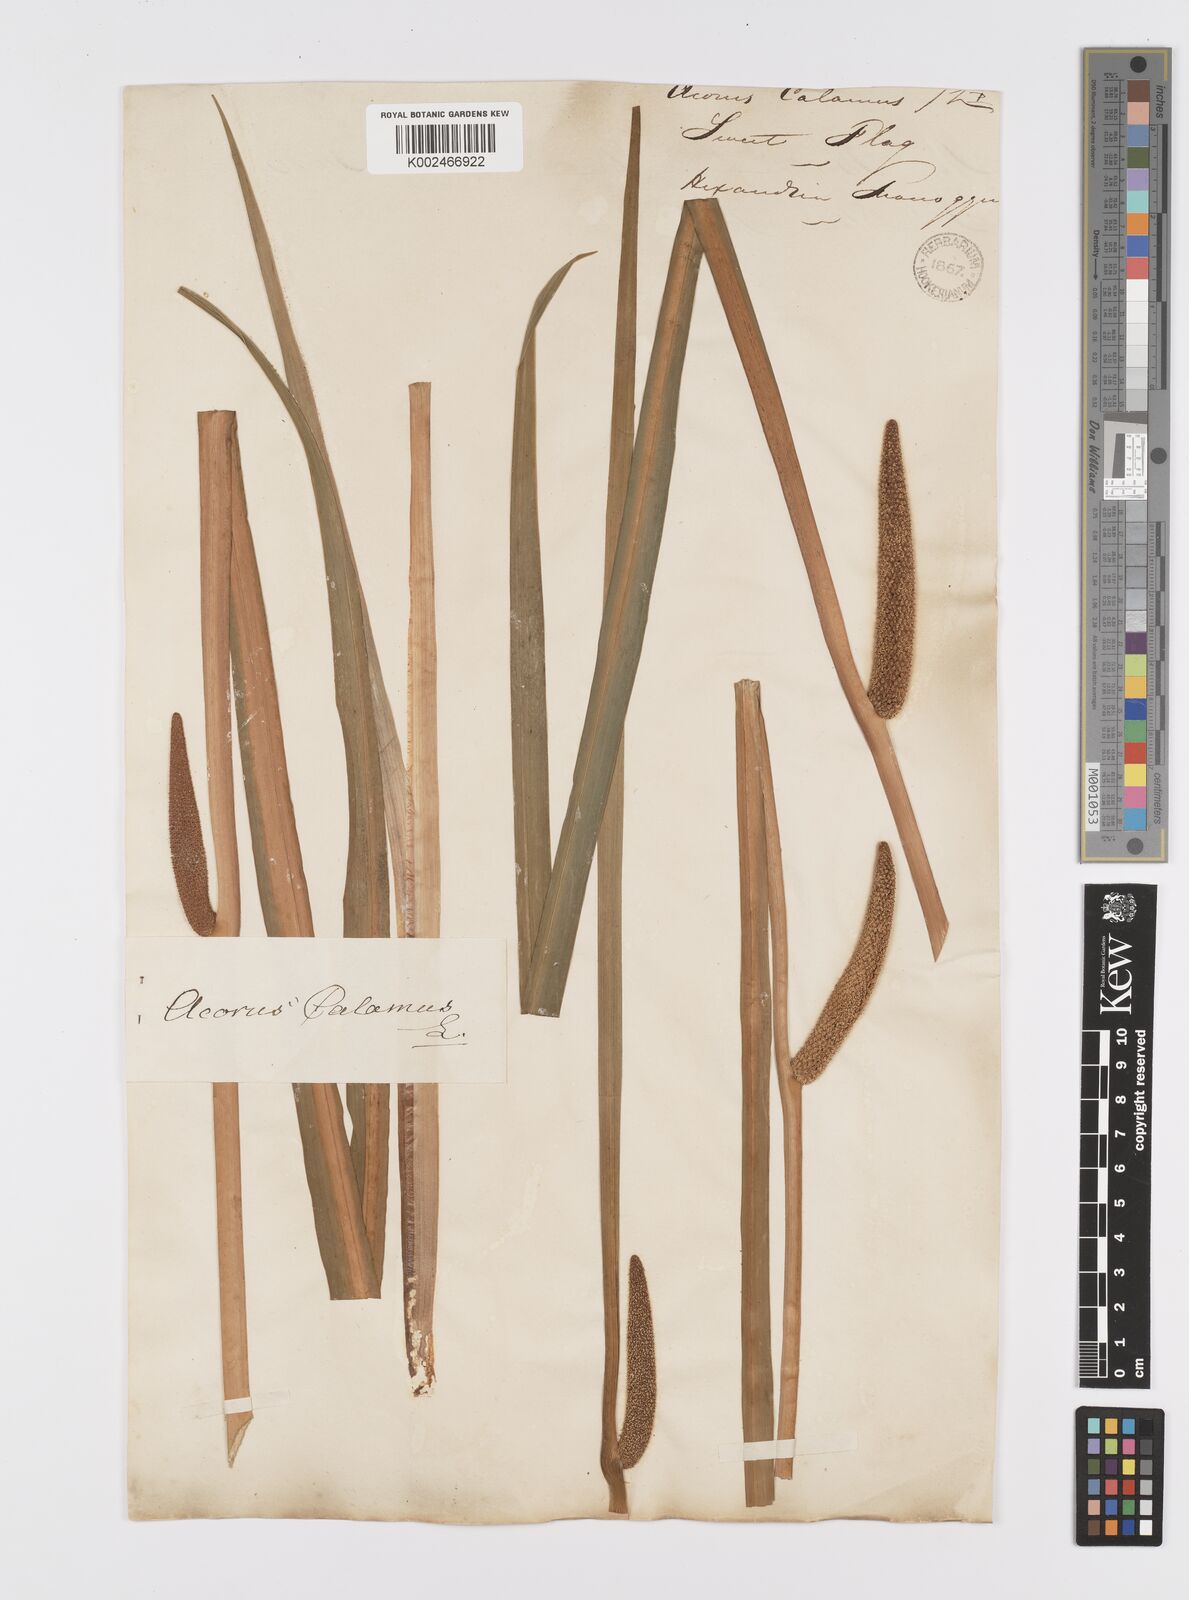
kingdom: Plantae
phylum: Tracheophyta
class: Liliopsida
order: Acorales
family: Acoraceae
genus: Acorus
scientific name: Acorus calamus
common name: Sweet-flag
